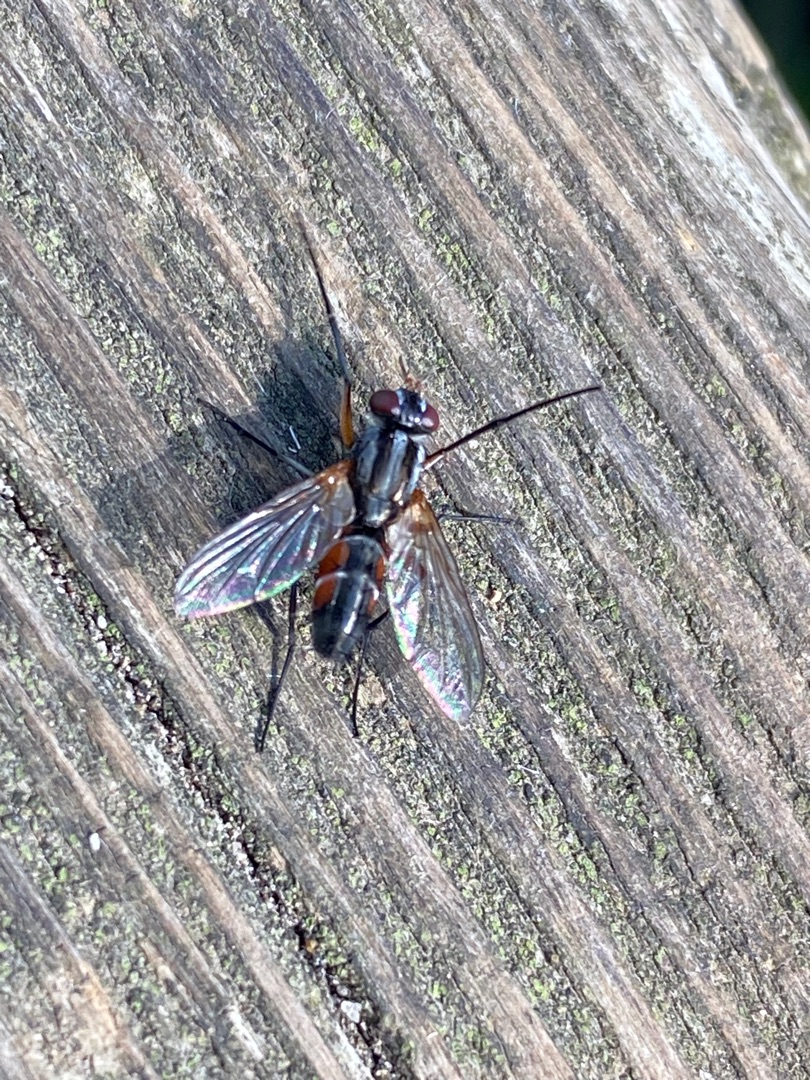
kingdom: Animalia
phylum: Arthropoda
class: Insecta
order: Diptera
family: Tachinidae
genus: Mintho
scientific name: Mintho rufiventris
